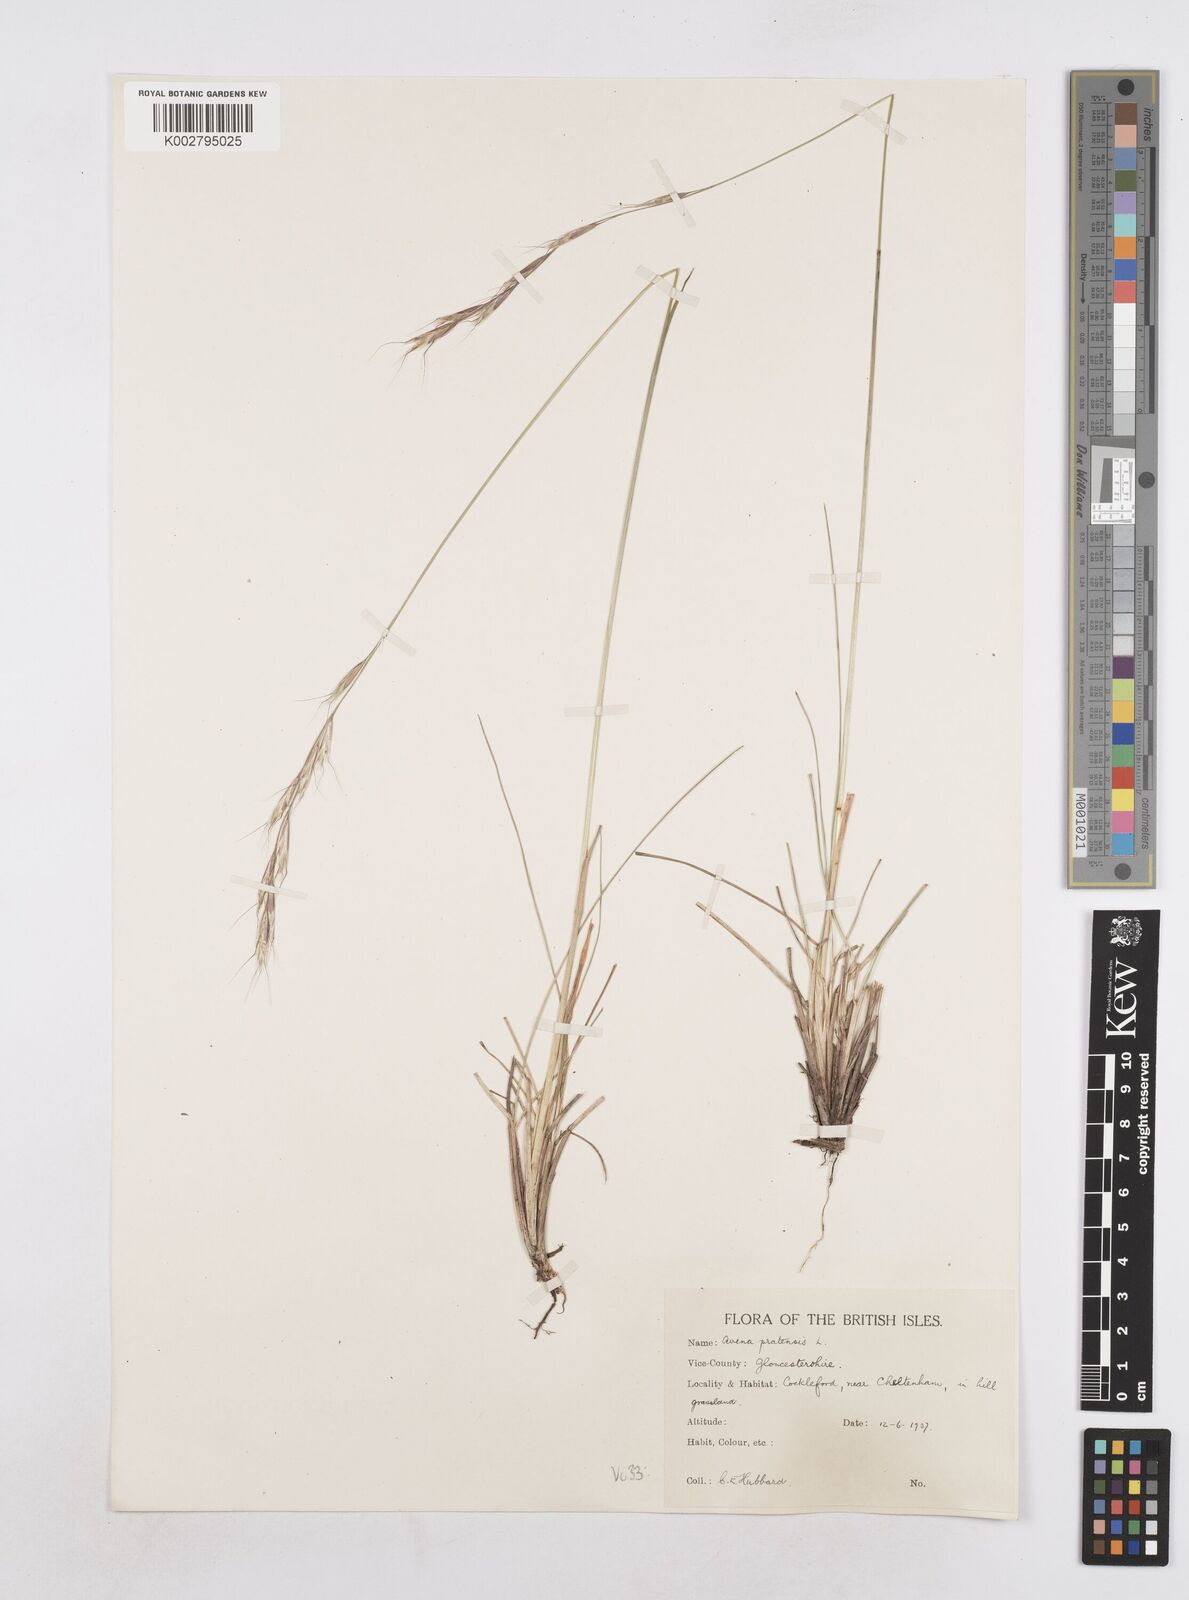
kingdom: Plantae
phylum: Tracheophyta
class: Liliopsida
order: Poales
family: Poaceae
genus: Helictochloa
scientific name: Helictochloa pratensis
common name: Meadow oat grass
